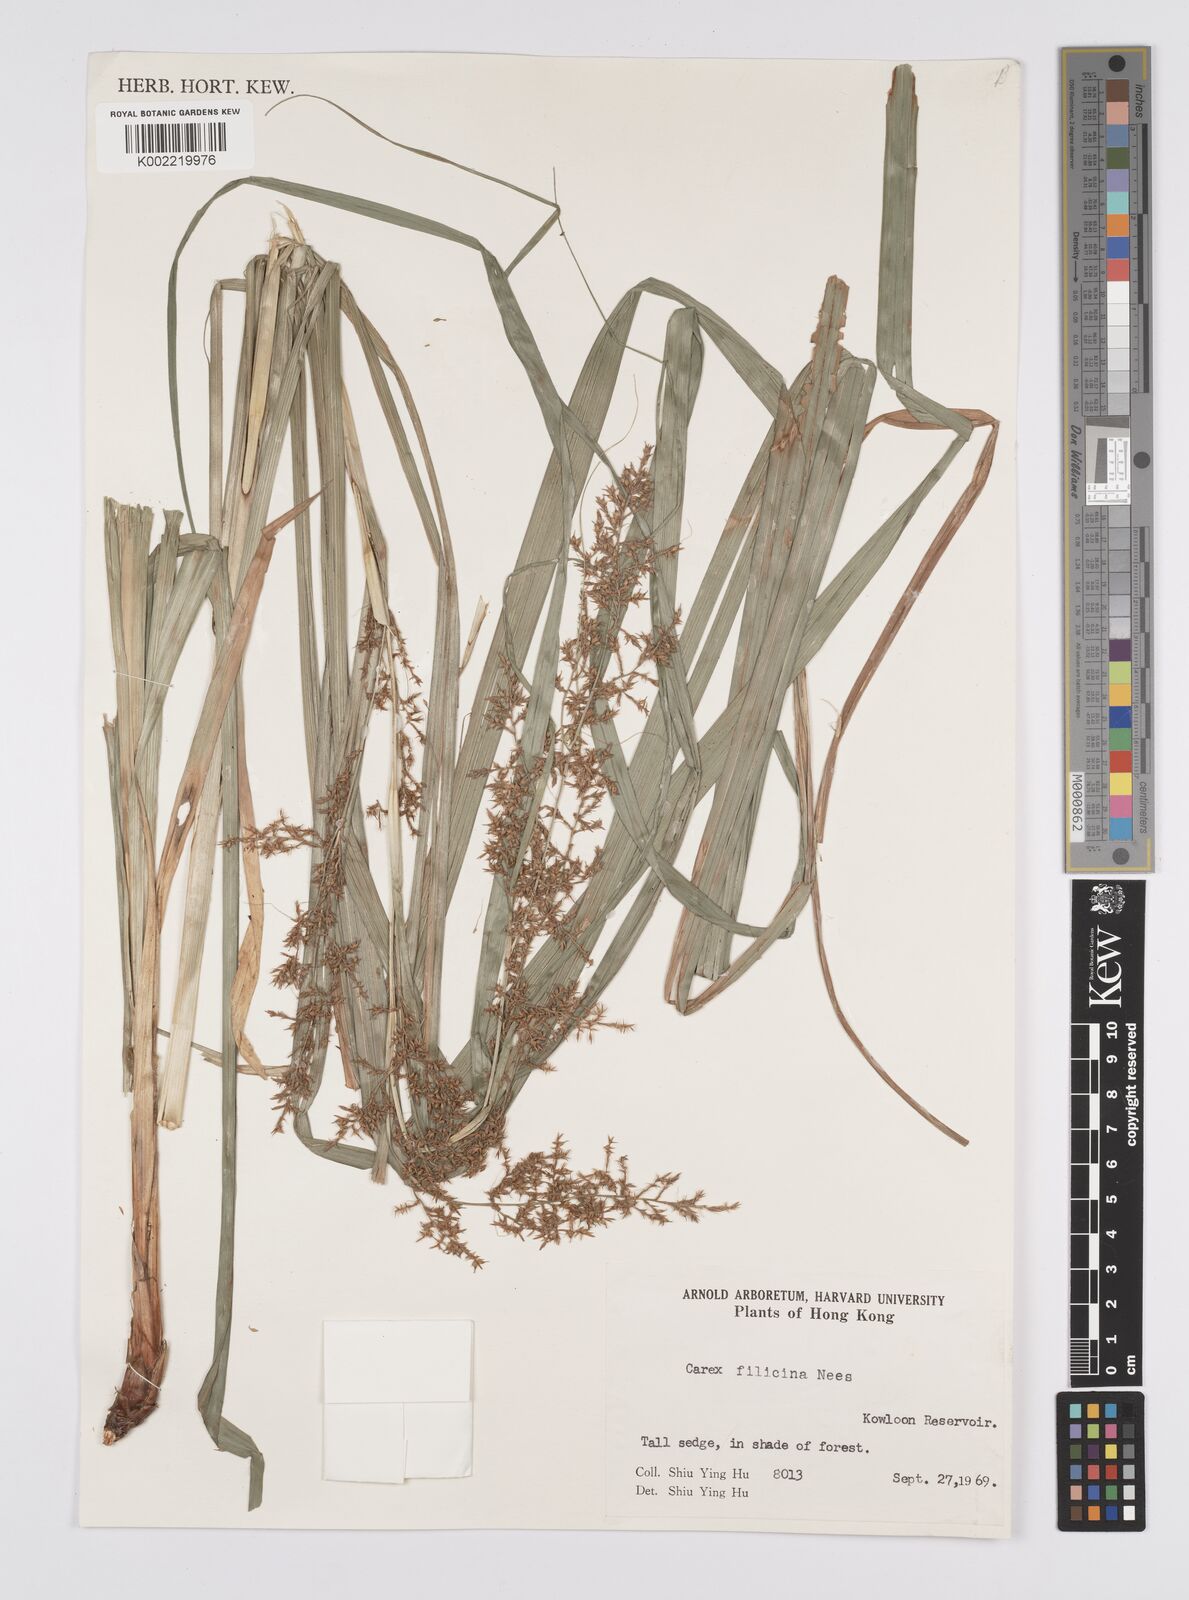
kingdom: Plantae
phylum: Tracheophyta
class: Liliopsida
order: Poales
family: Cyperaceae
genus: Carex
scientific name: Carex filicina
